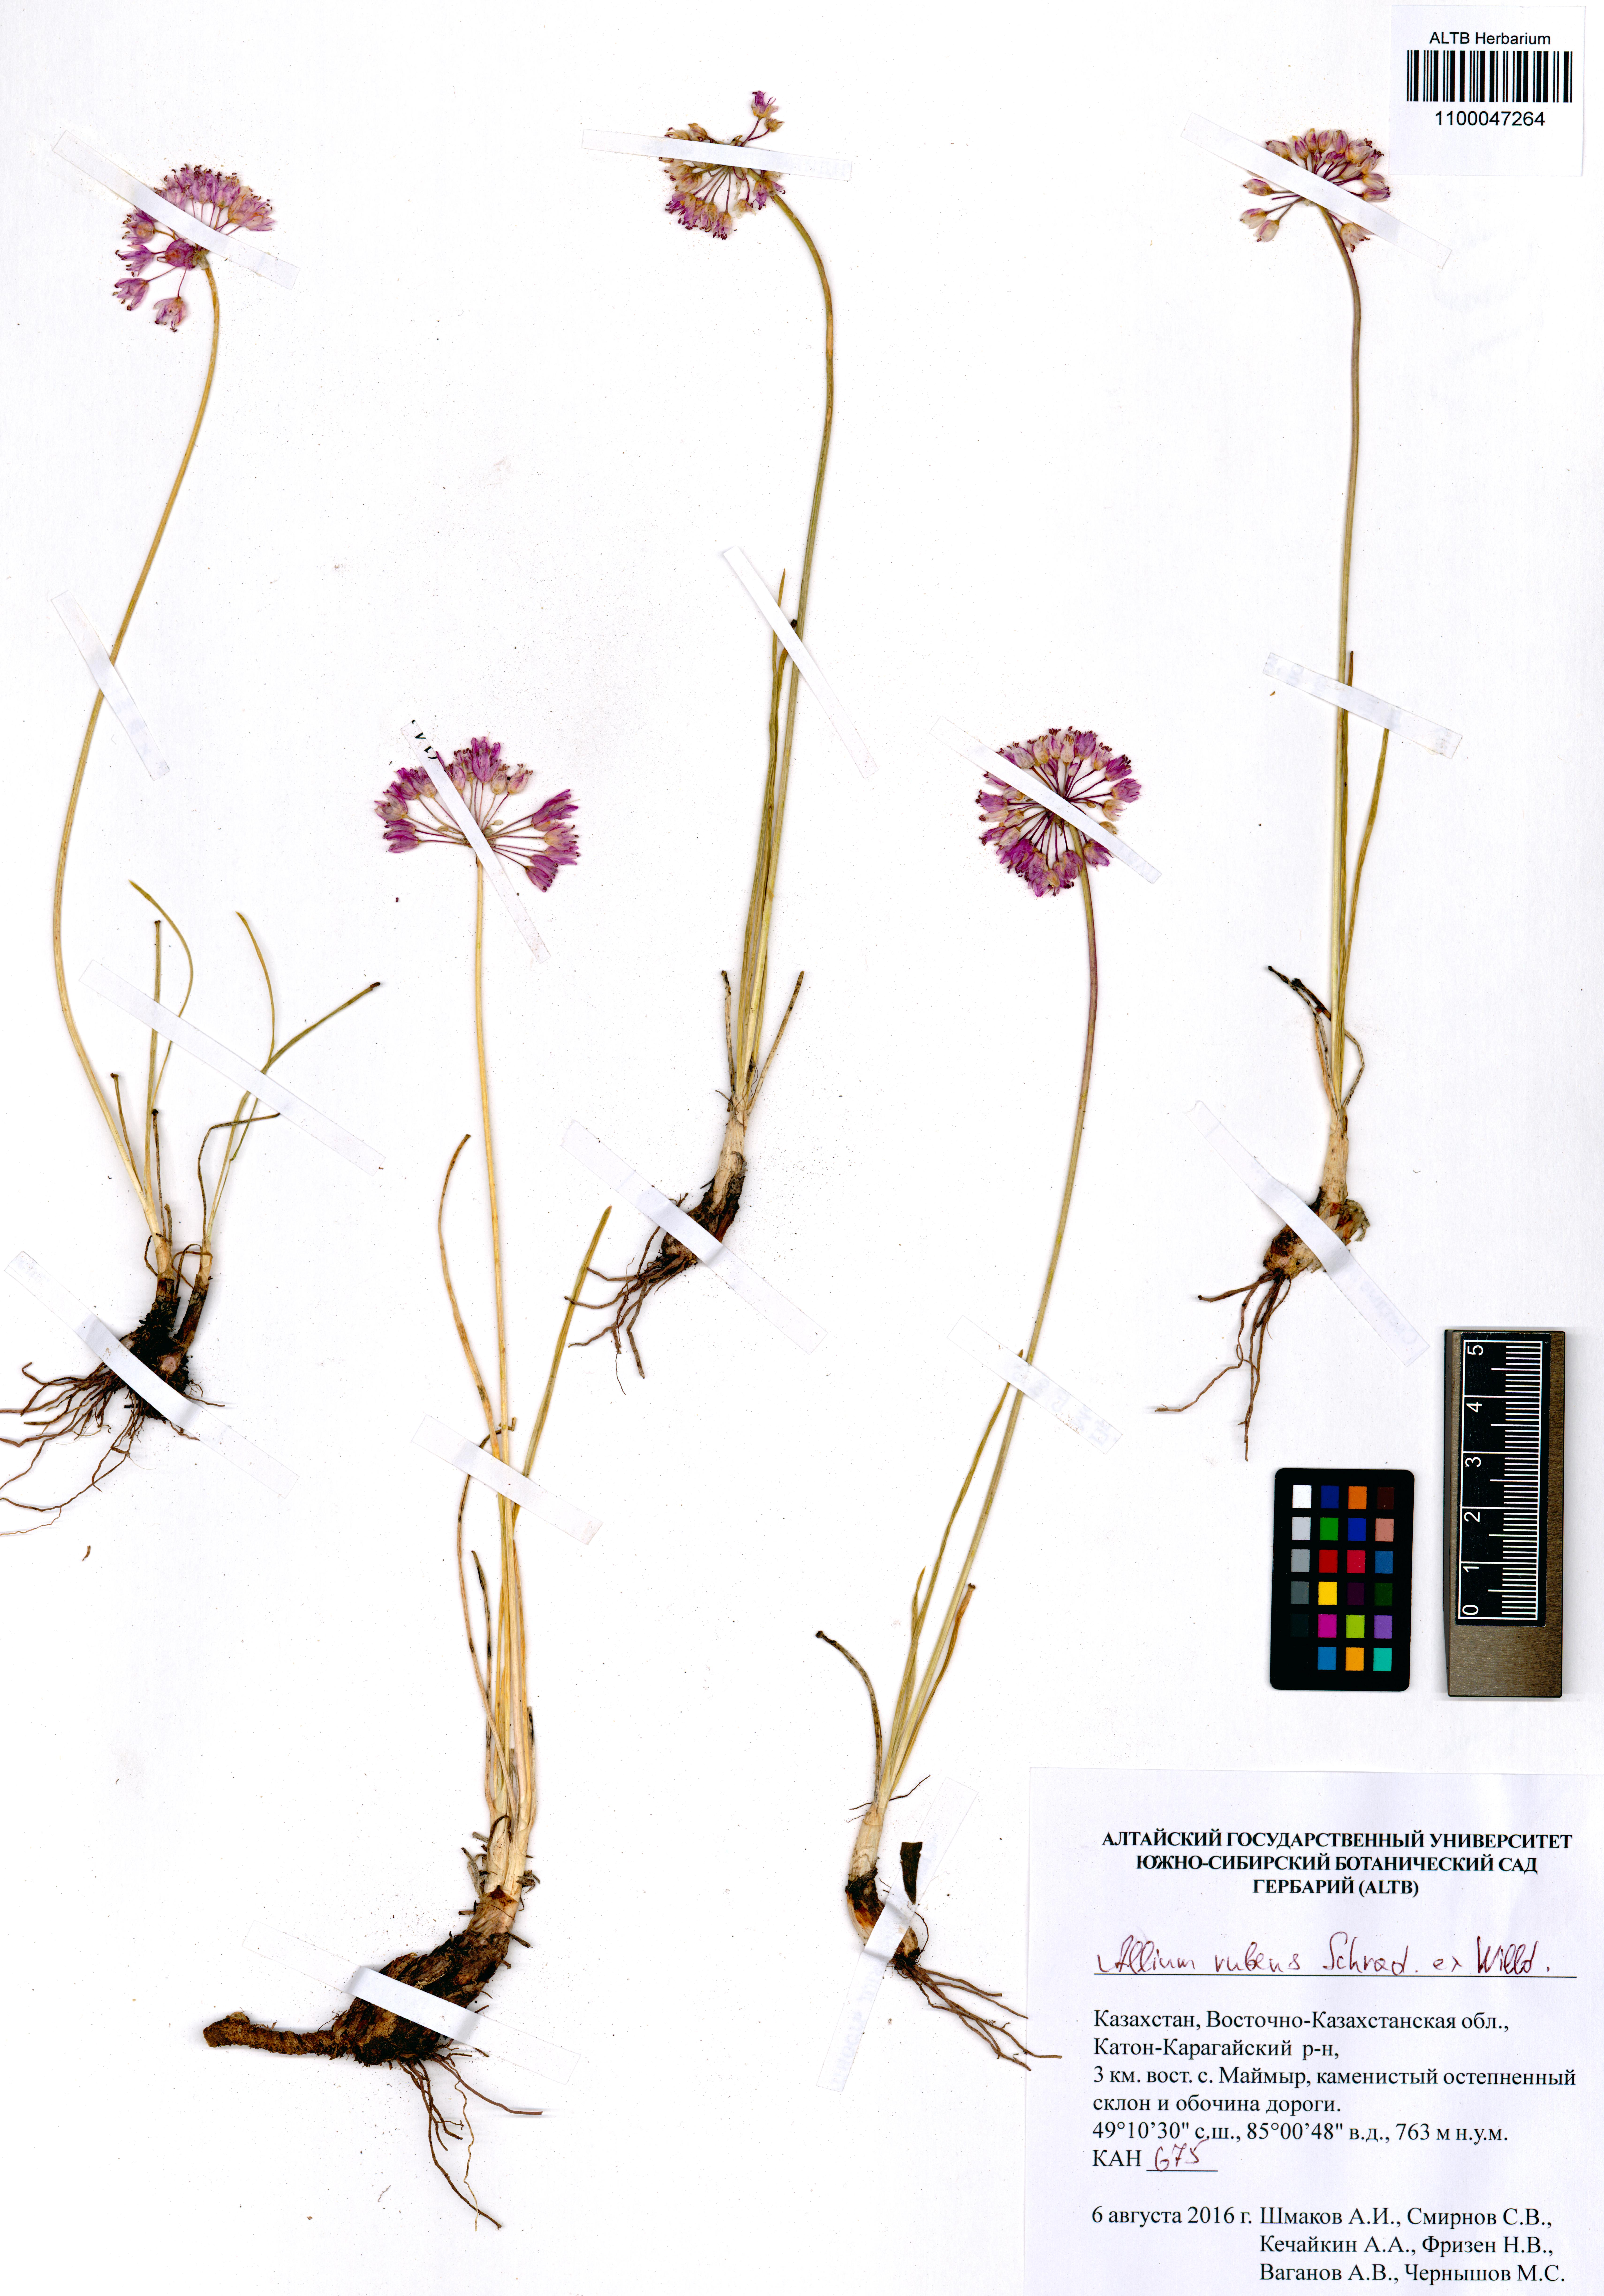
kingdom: Plantae
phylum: Tracheophyta
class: Liliopsida
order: Asparagales
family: Amaryllidaceae
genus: Allium
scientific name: Allium rubens
